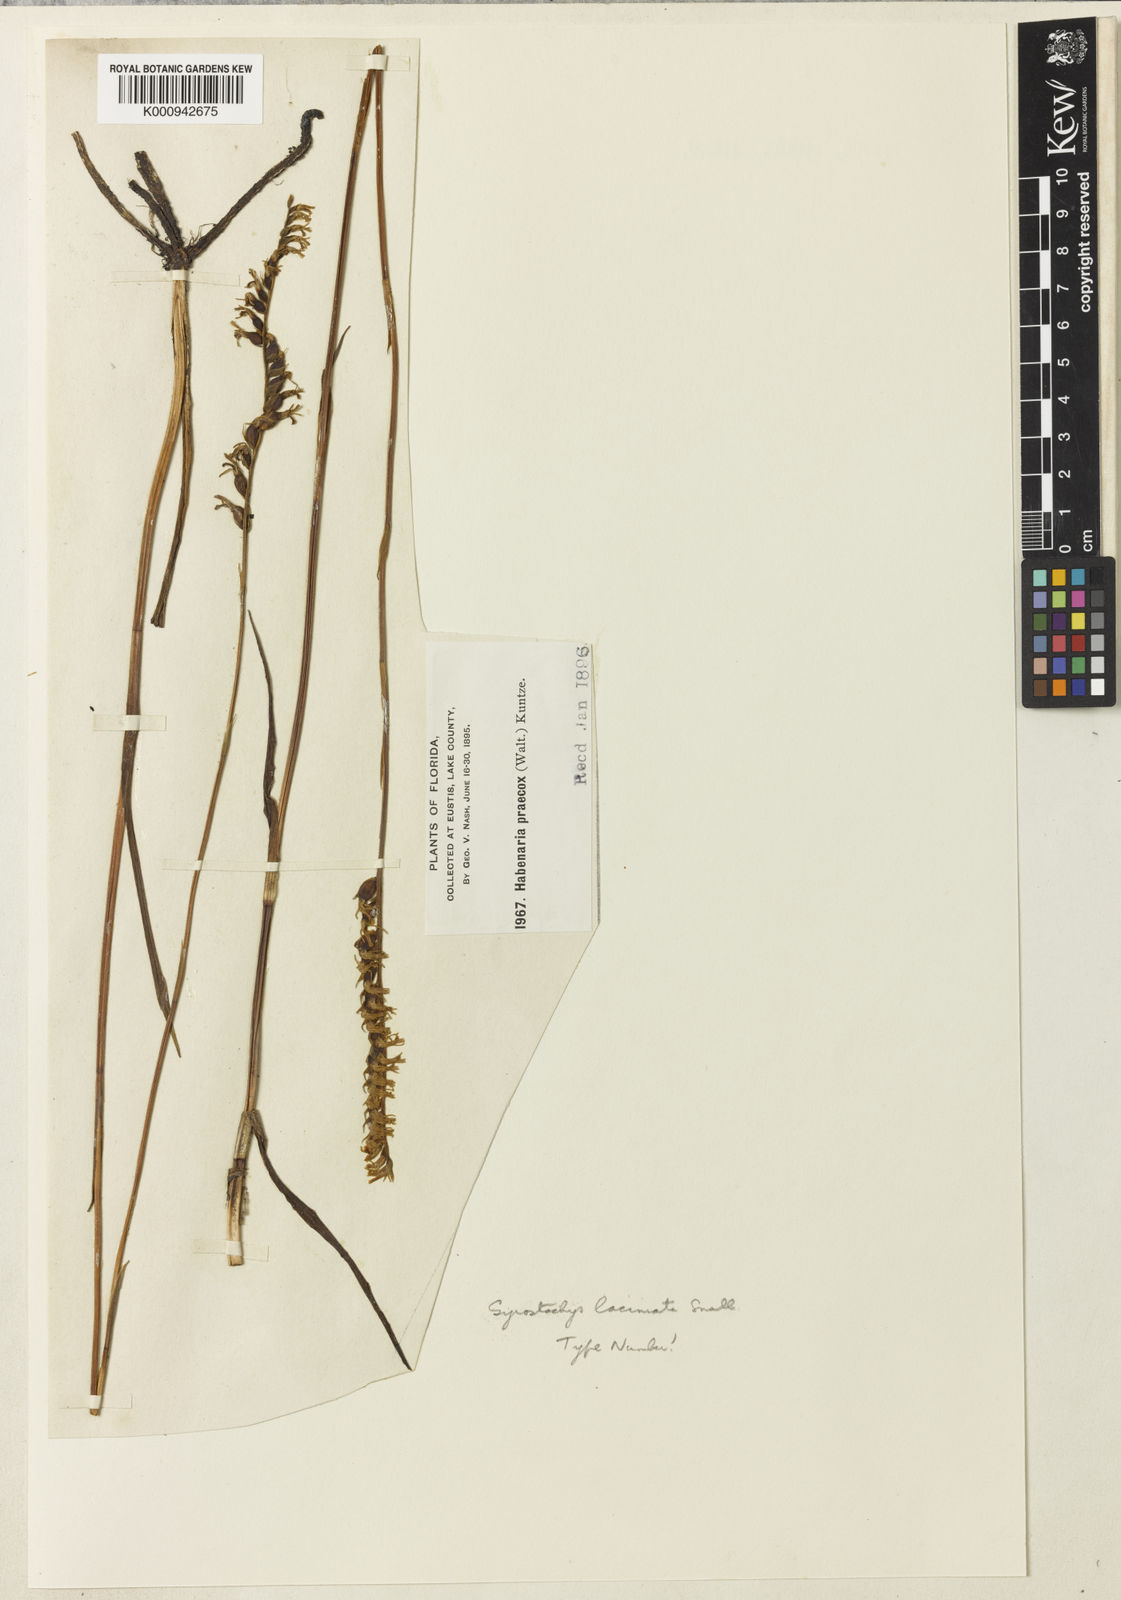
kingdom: Plantae
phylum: Tracheophyta
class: Liliopsida
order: Asparagales
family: Orchidaceae
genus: Spiranthes
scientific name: Spiranthes laciniata
